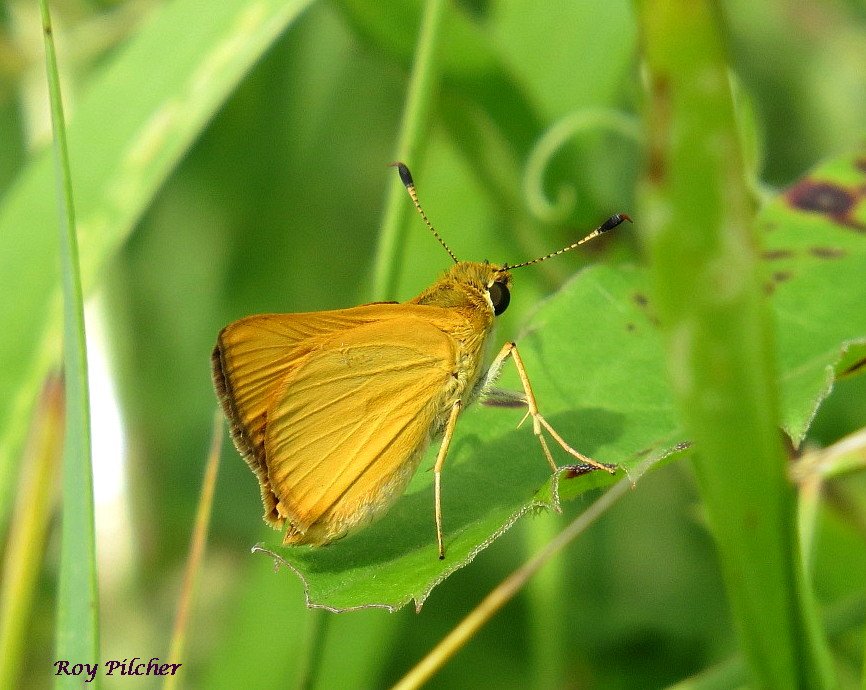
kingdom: Animalia
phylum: Arthropoda
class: Insecta
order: Lepidoptera
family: Hesperiidae
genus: Atrytone
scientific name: Atrytone delaware
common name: Delaware Skipper
